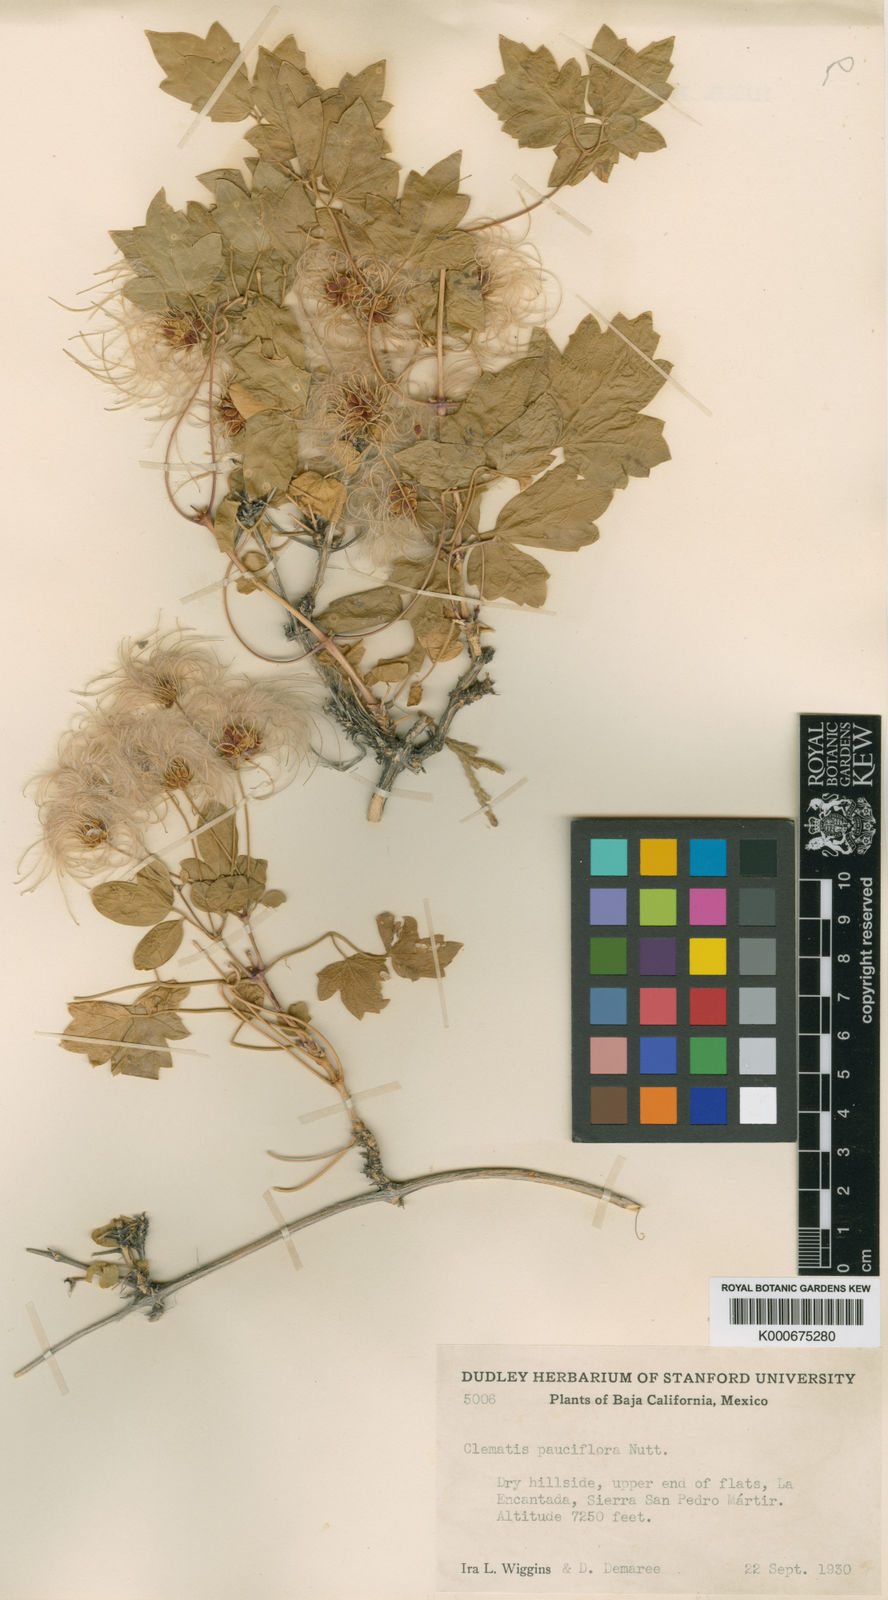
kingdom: Plantae
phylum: Tracheophyta
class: Magnoliopsida
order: Ranunculales
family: Ranunculaceae
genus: Clematis
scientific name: Clematis pauciflora
